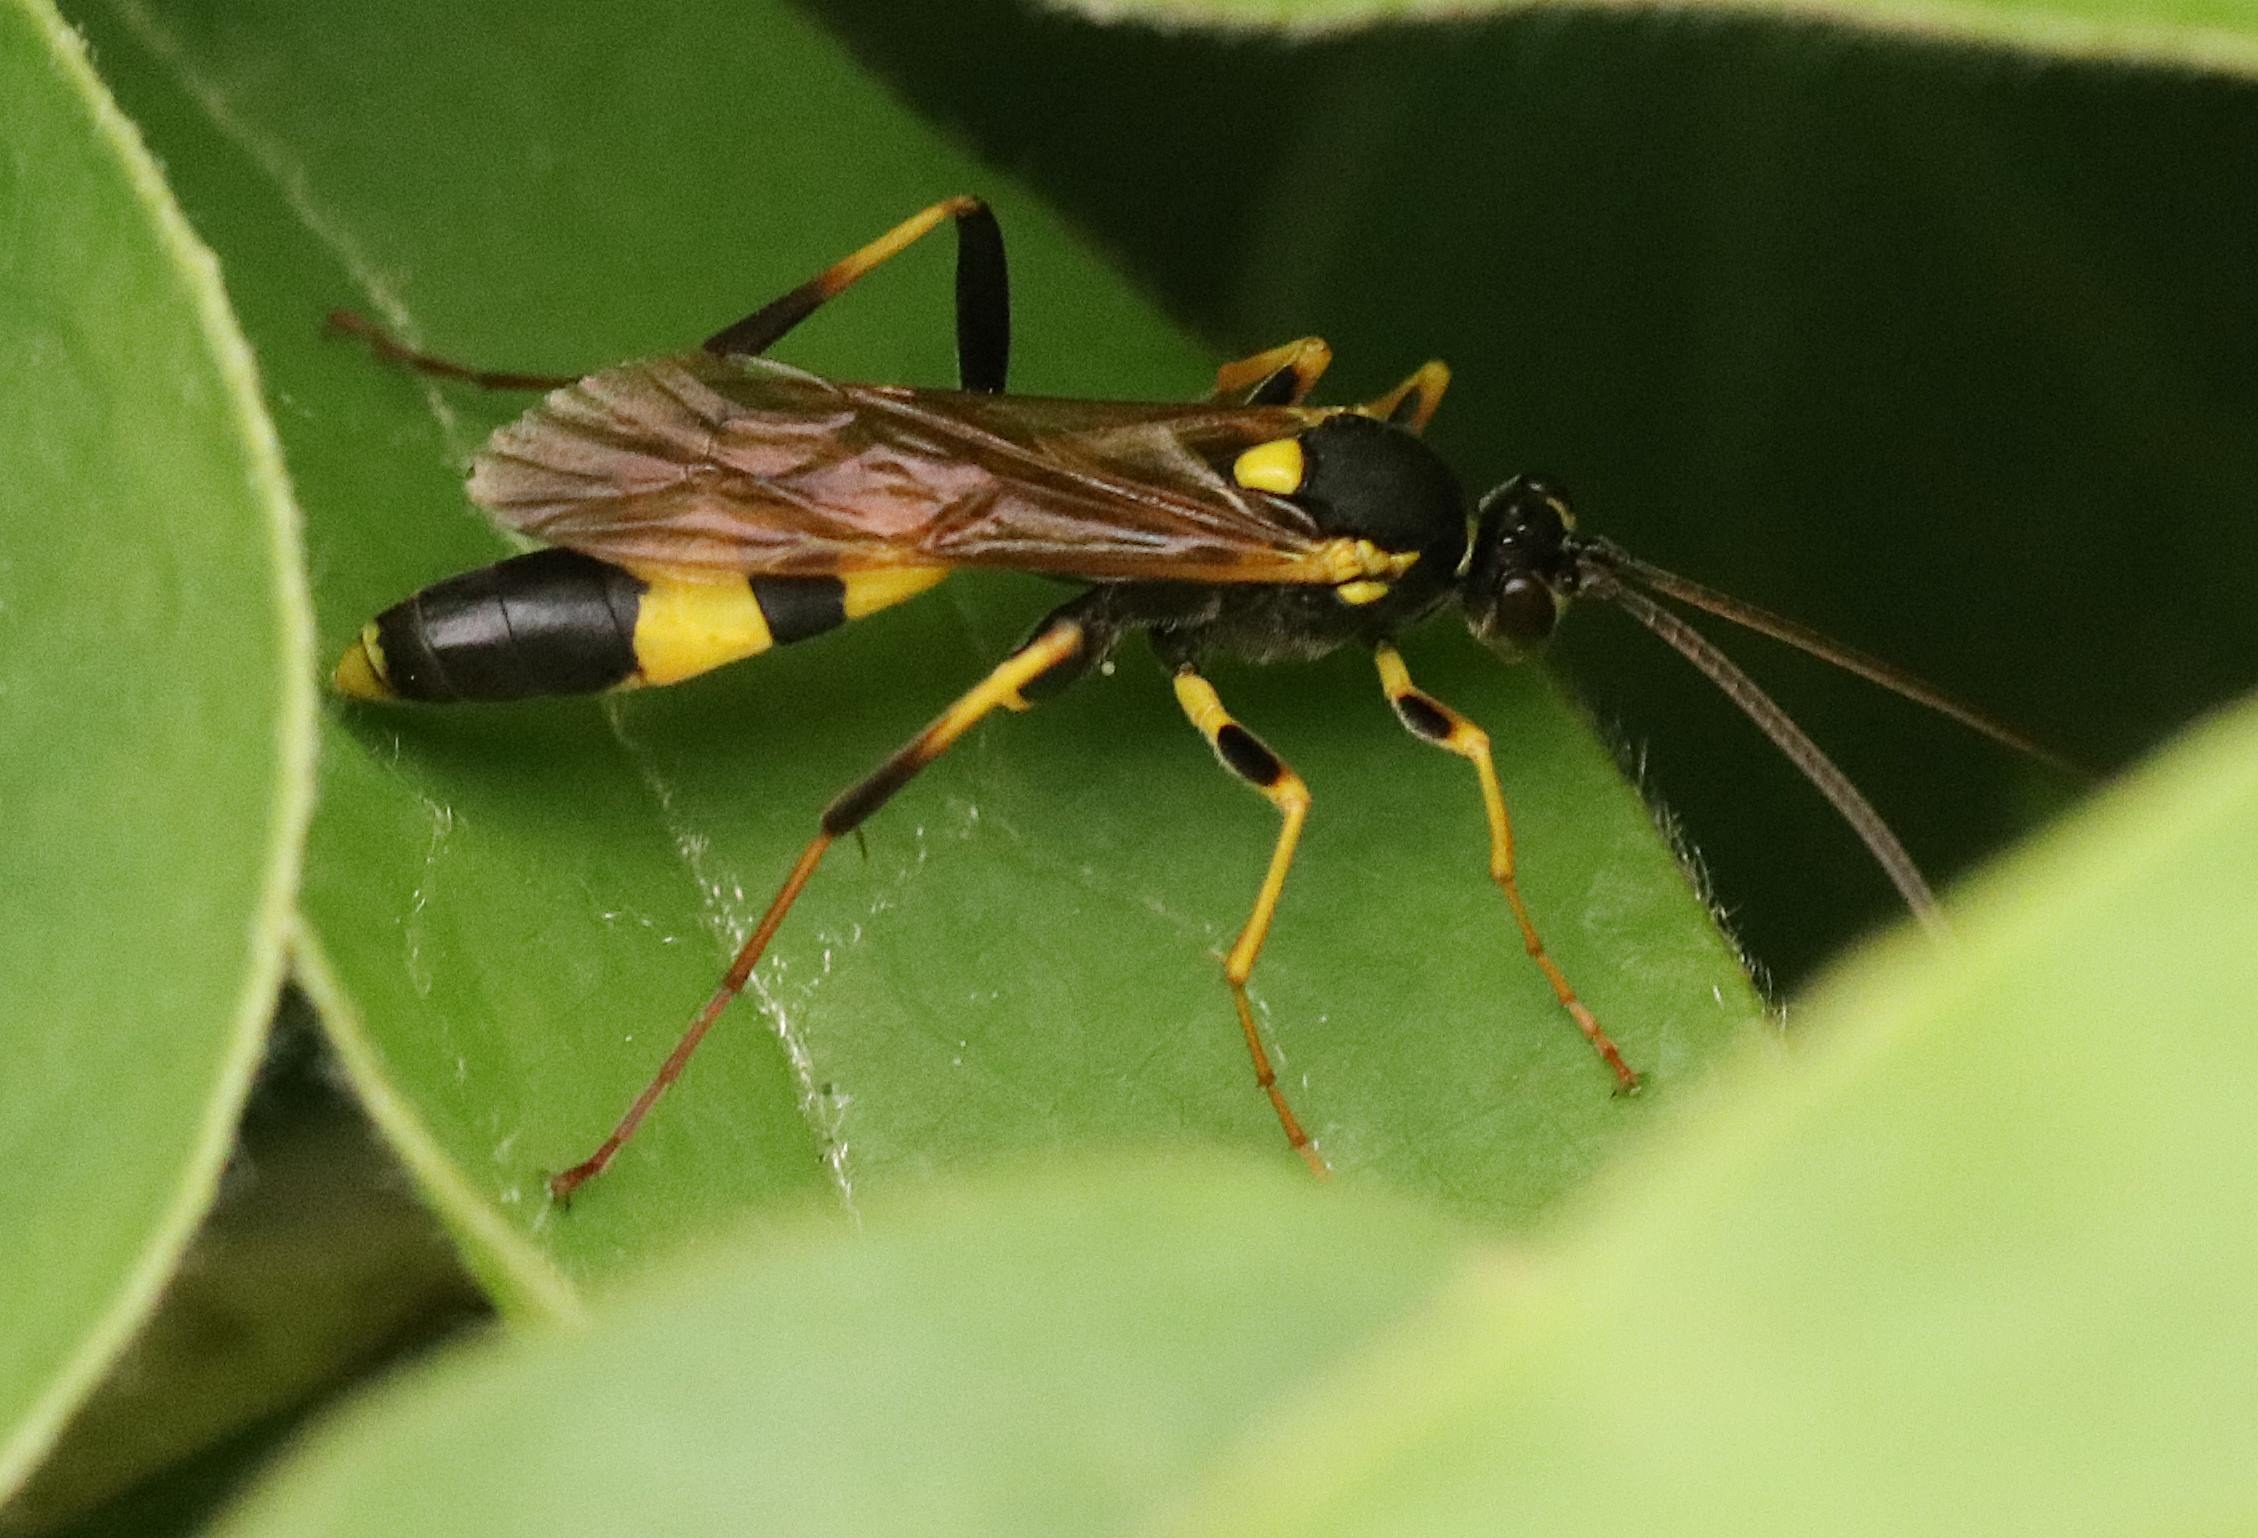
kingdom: Animalia
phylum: Arthropoda
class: Insecta
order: Hymenoptera
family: Ichneumonidae
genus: Amblyteles
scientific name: Amblyteles armatorius
